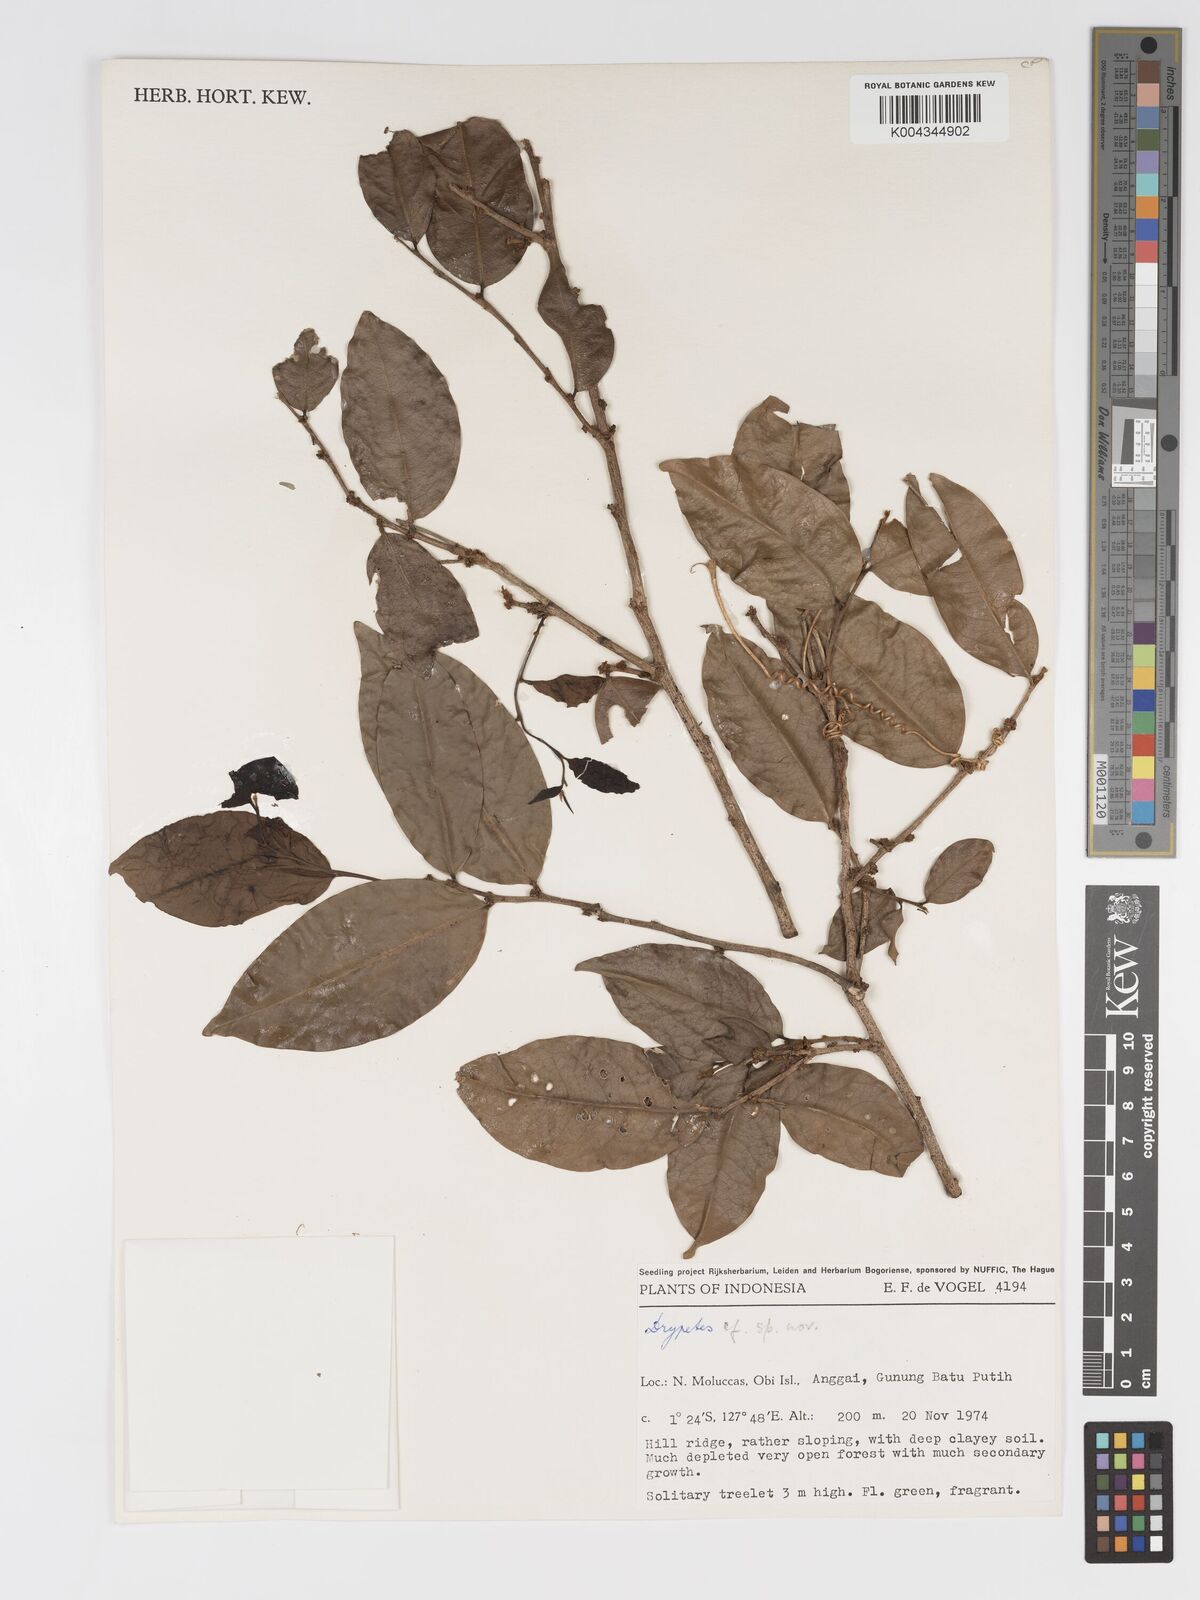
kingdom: Plantae
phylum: Tracheophyta
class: Magnoliopsida
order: Malpighiales
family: Putranjivaceae
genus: Drypetes
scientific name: Drypetes
